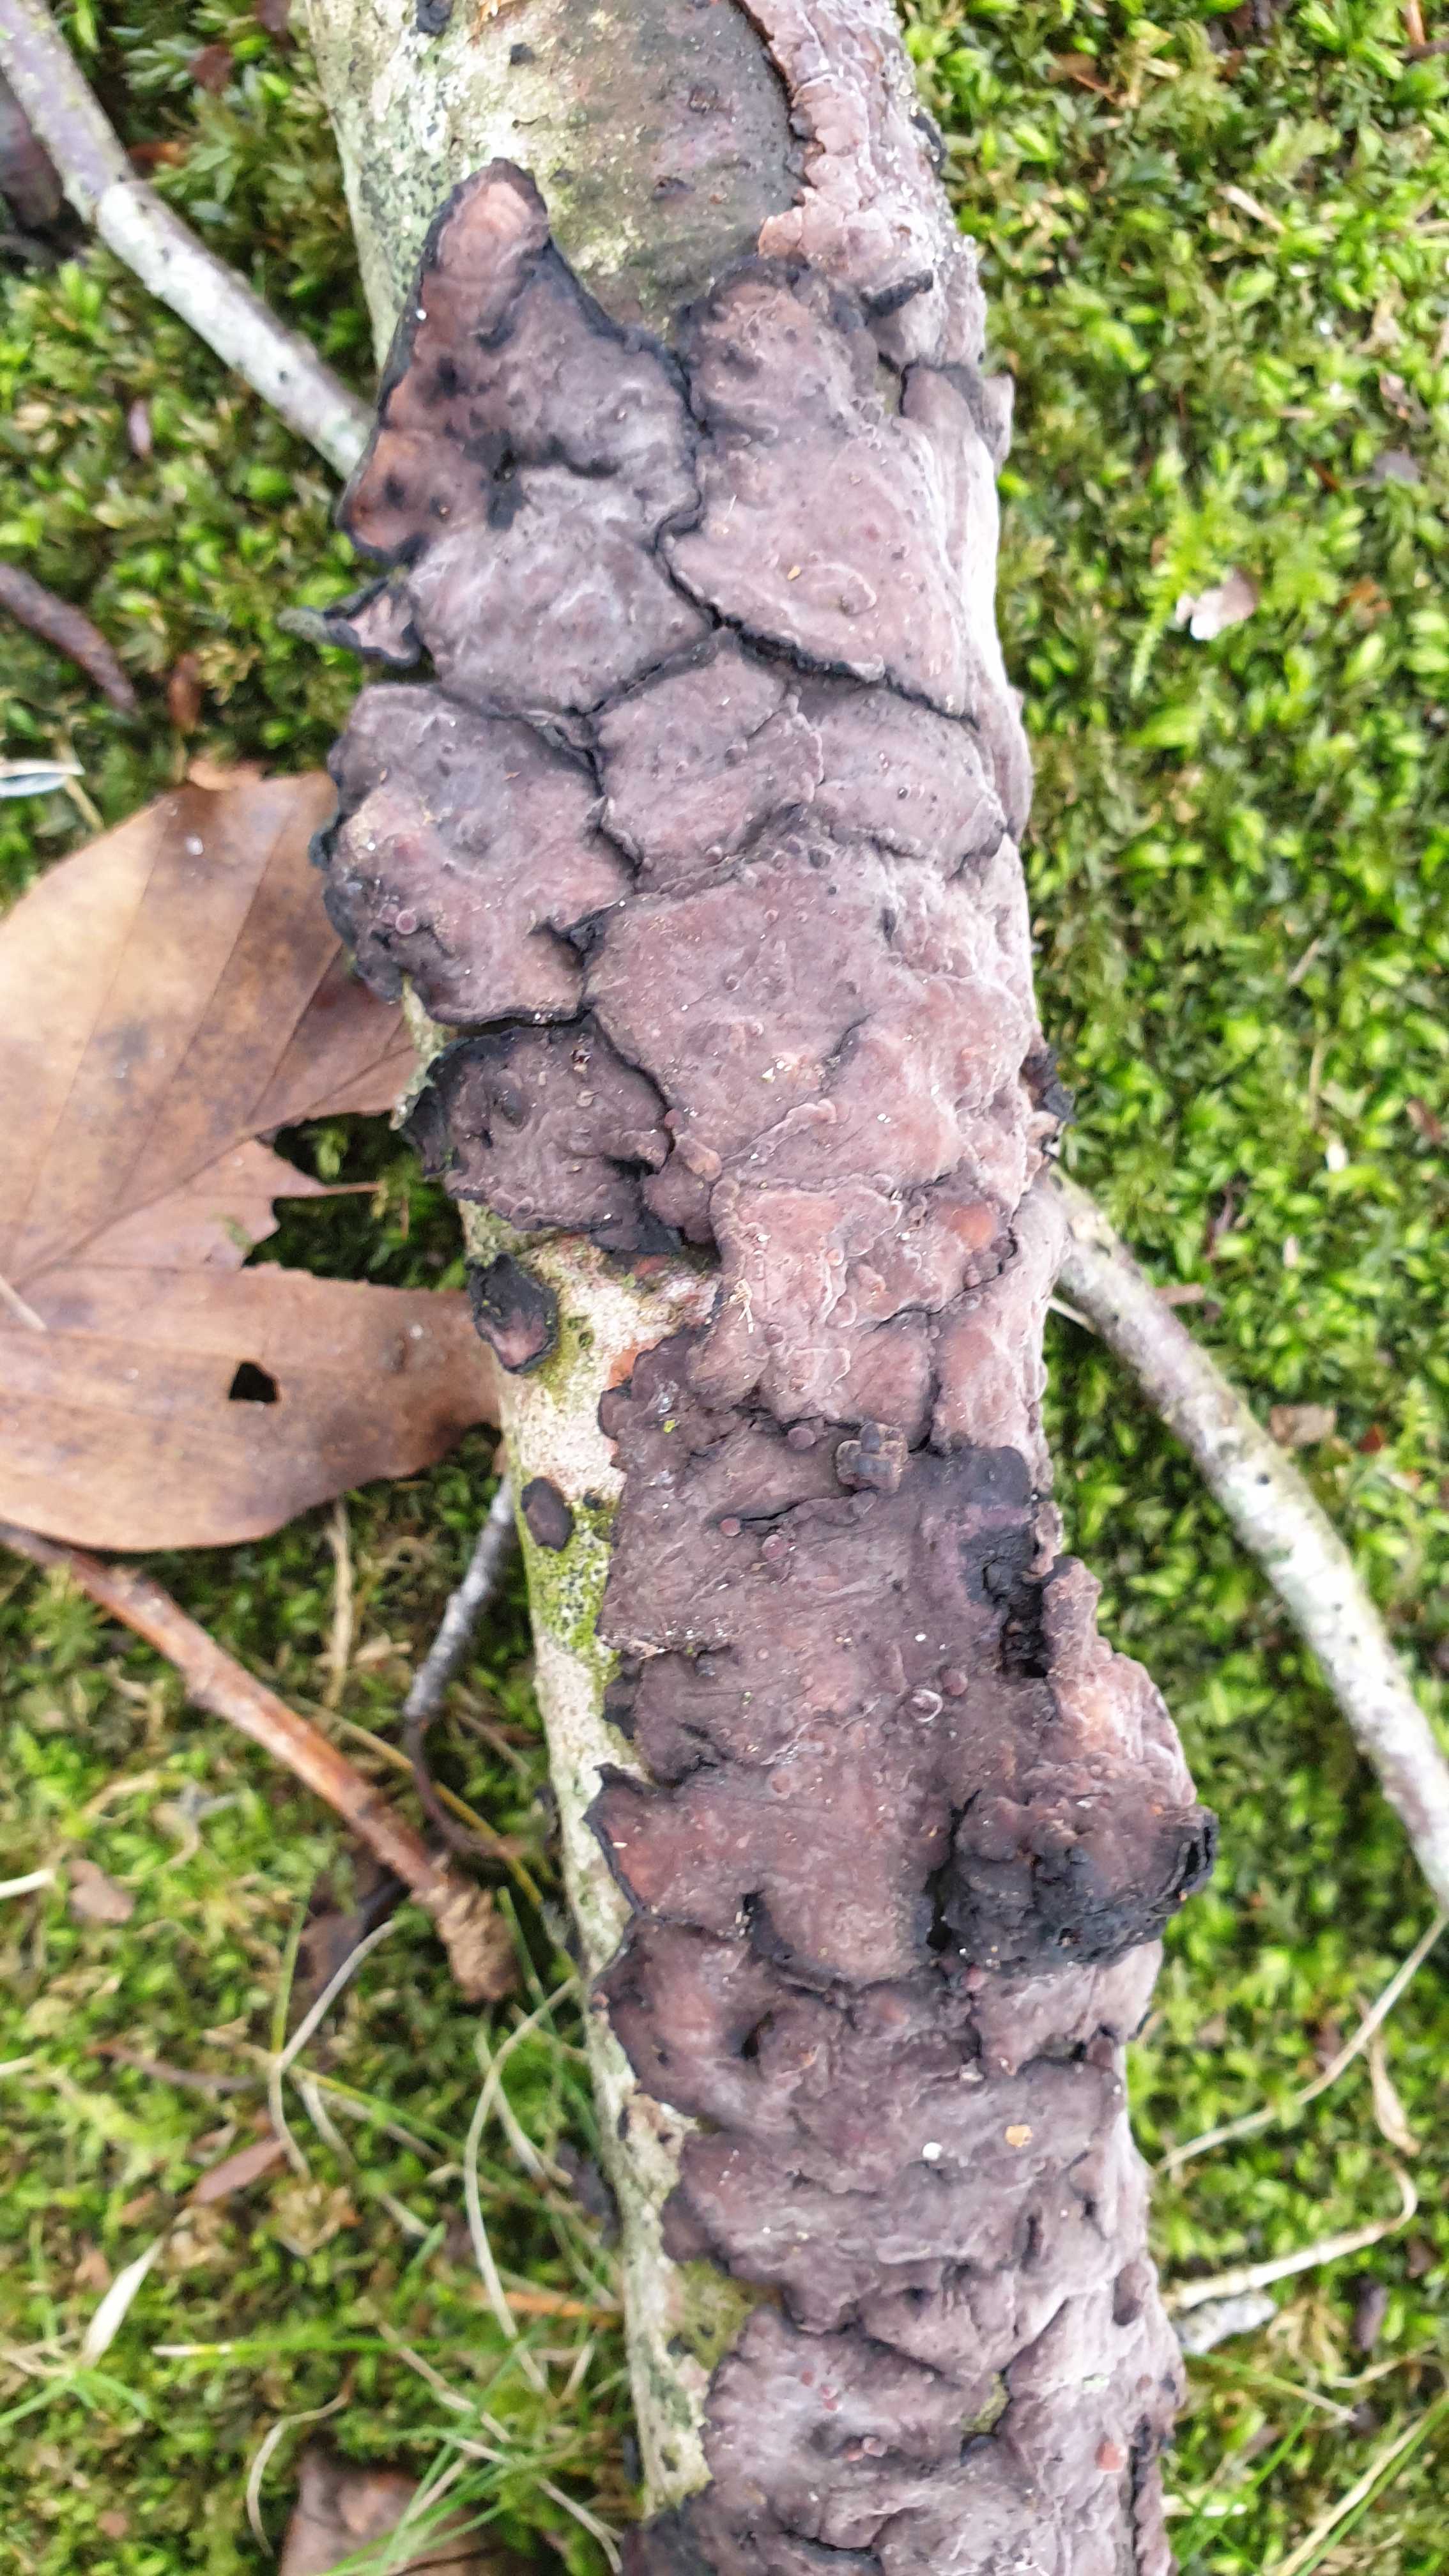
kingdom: Fungi
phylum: Basidiomycota
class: Agaricomycetes
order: Russulales
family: Peniophoraceae
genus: Peniophora
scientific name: Peniophora quercina
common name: ege-voksskind
